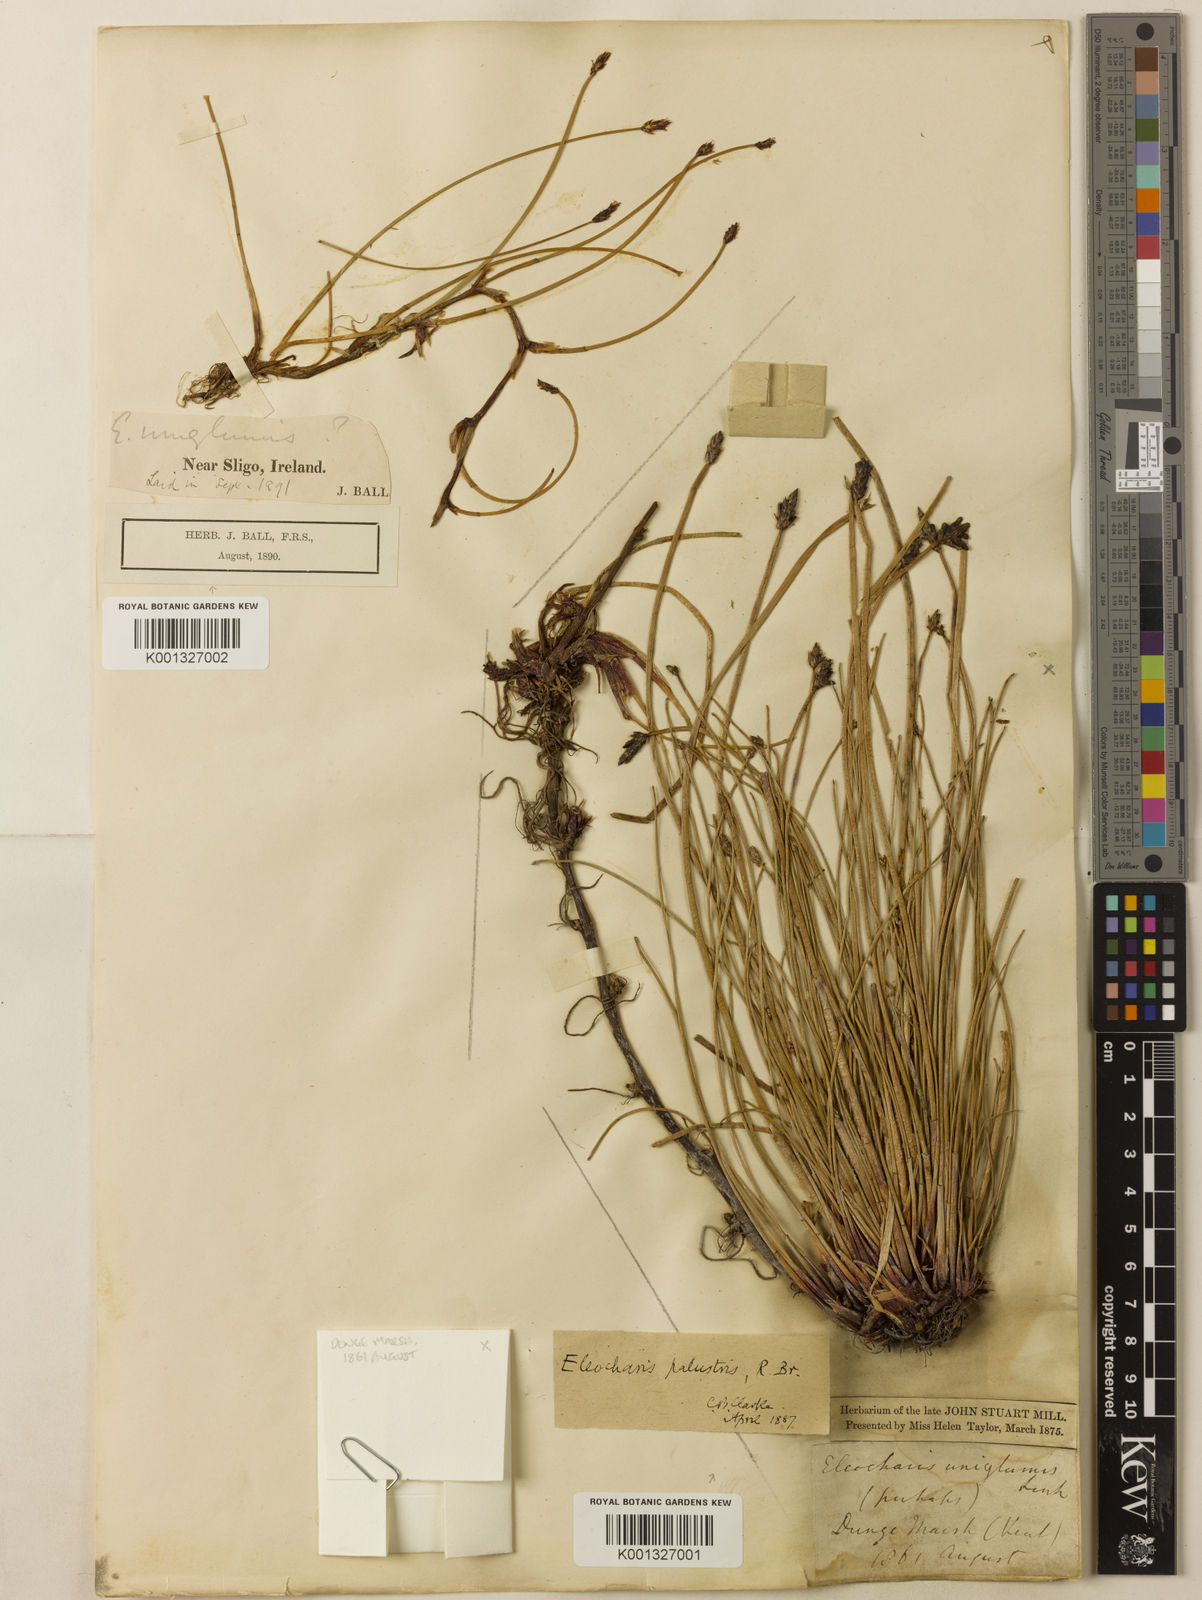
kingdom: Plantae
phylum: Tracheophyta
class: Liliopsida
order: Poales
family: Cyperaceae
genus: Eleocharis
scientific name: Eleocharis uniglumis
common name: Slender spike-rush
